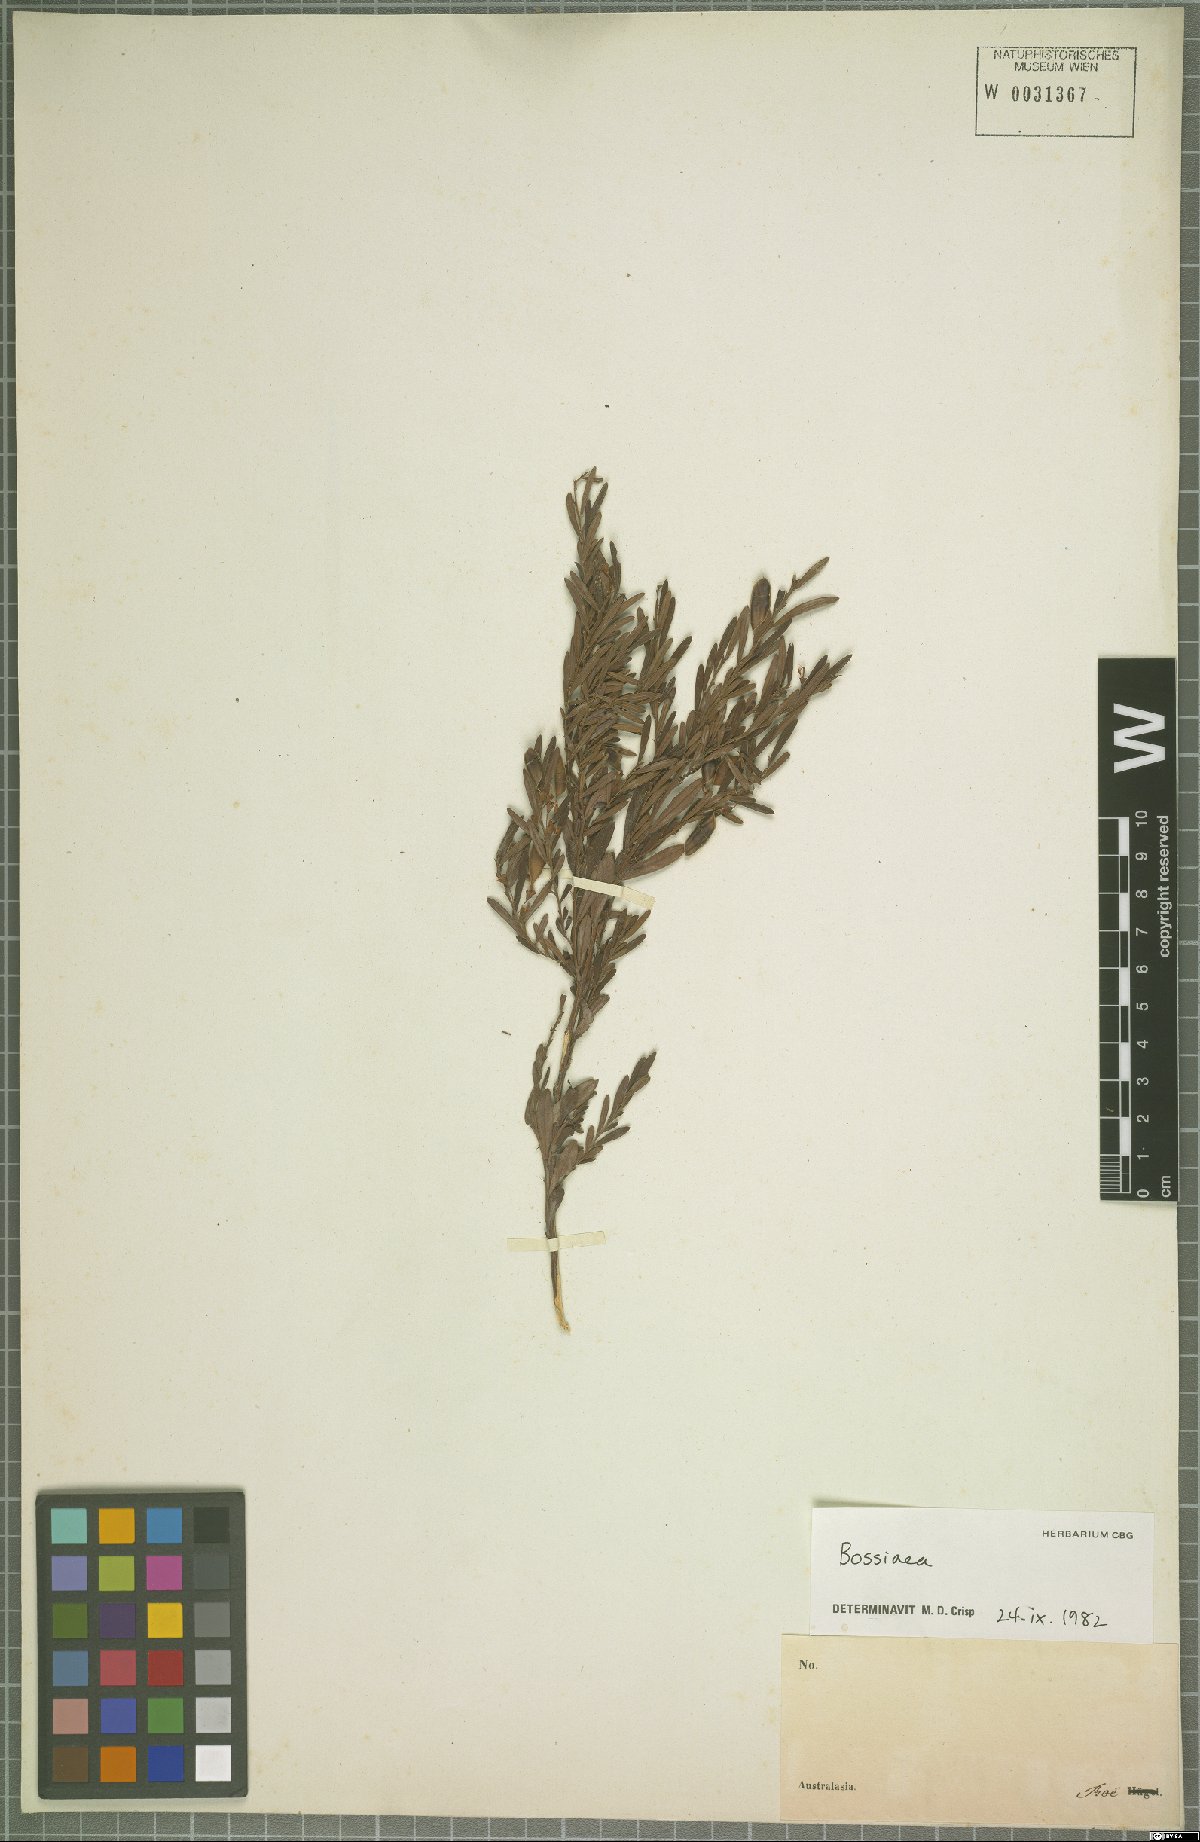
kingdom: Plantae
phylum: Tracheophyta
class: Magnoliopsida
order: Fabales
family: Fabaceae
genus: Bossiaea
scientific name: Bossiaea
